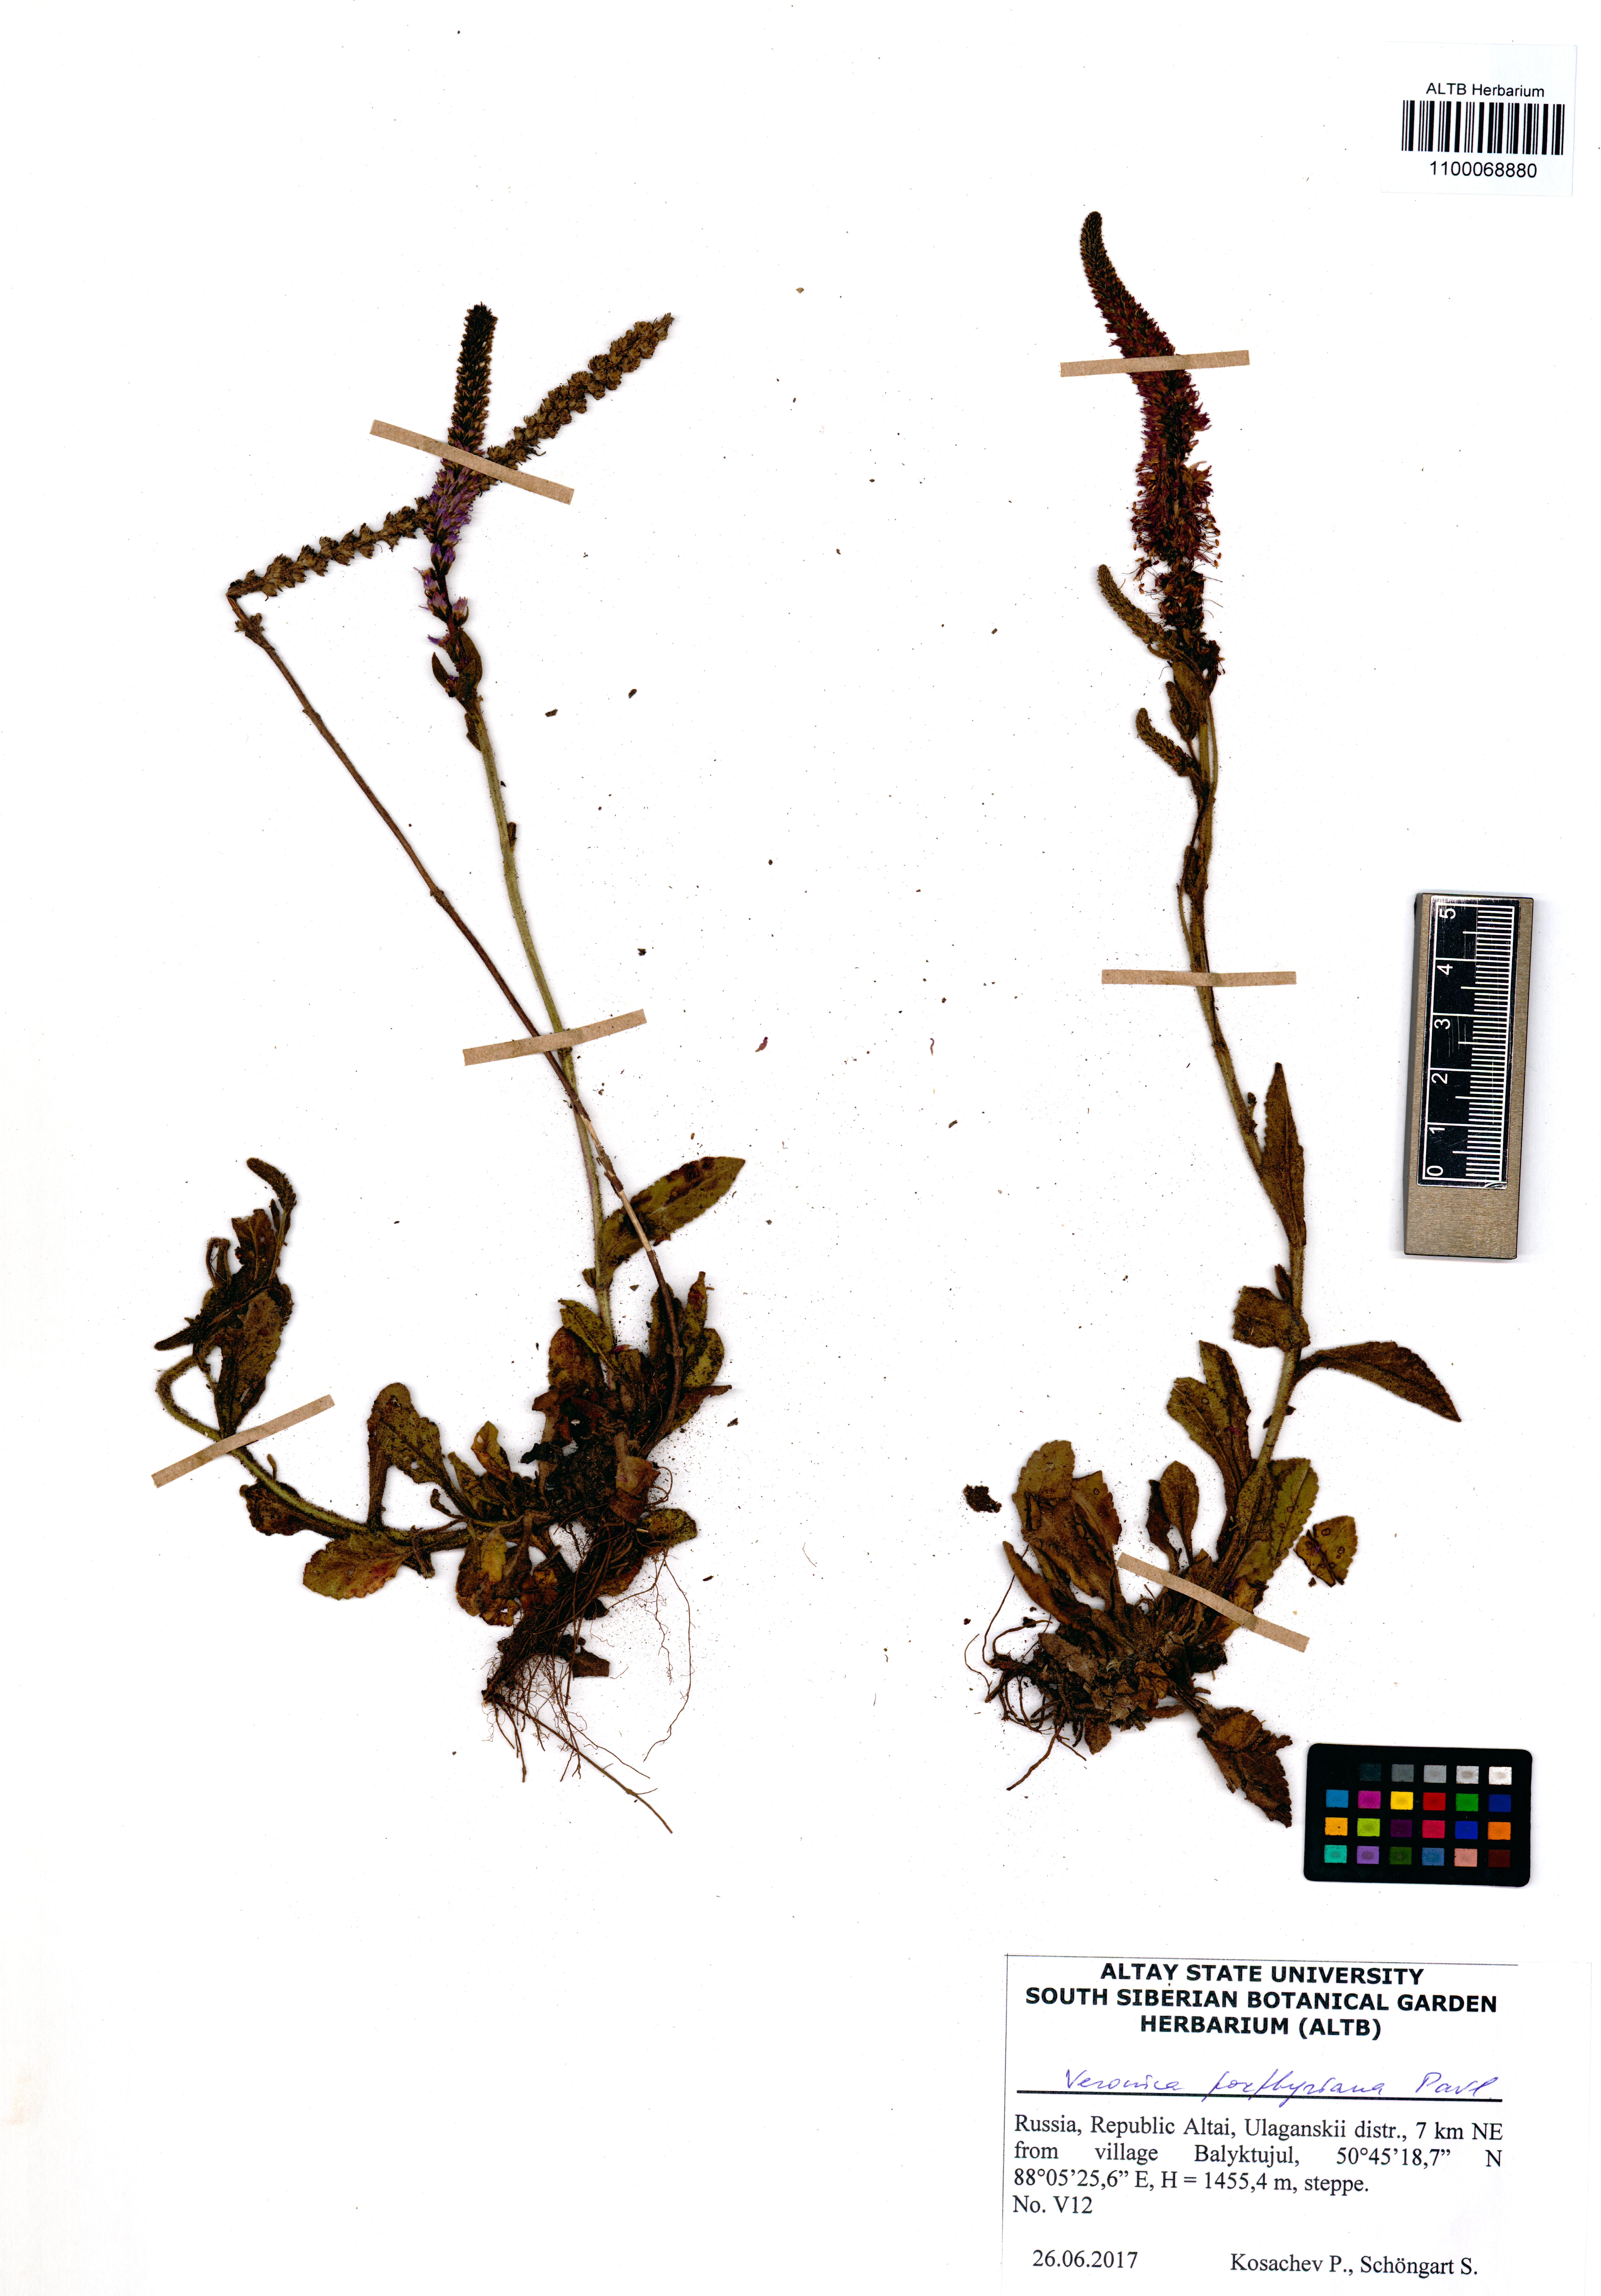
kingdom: Plantae
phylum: Tracheophyta
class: Magnoliopsida
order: Lamiales
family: Plantaginaceae
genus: Veronica
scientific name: Veronica porphyriana
